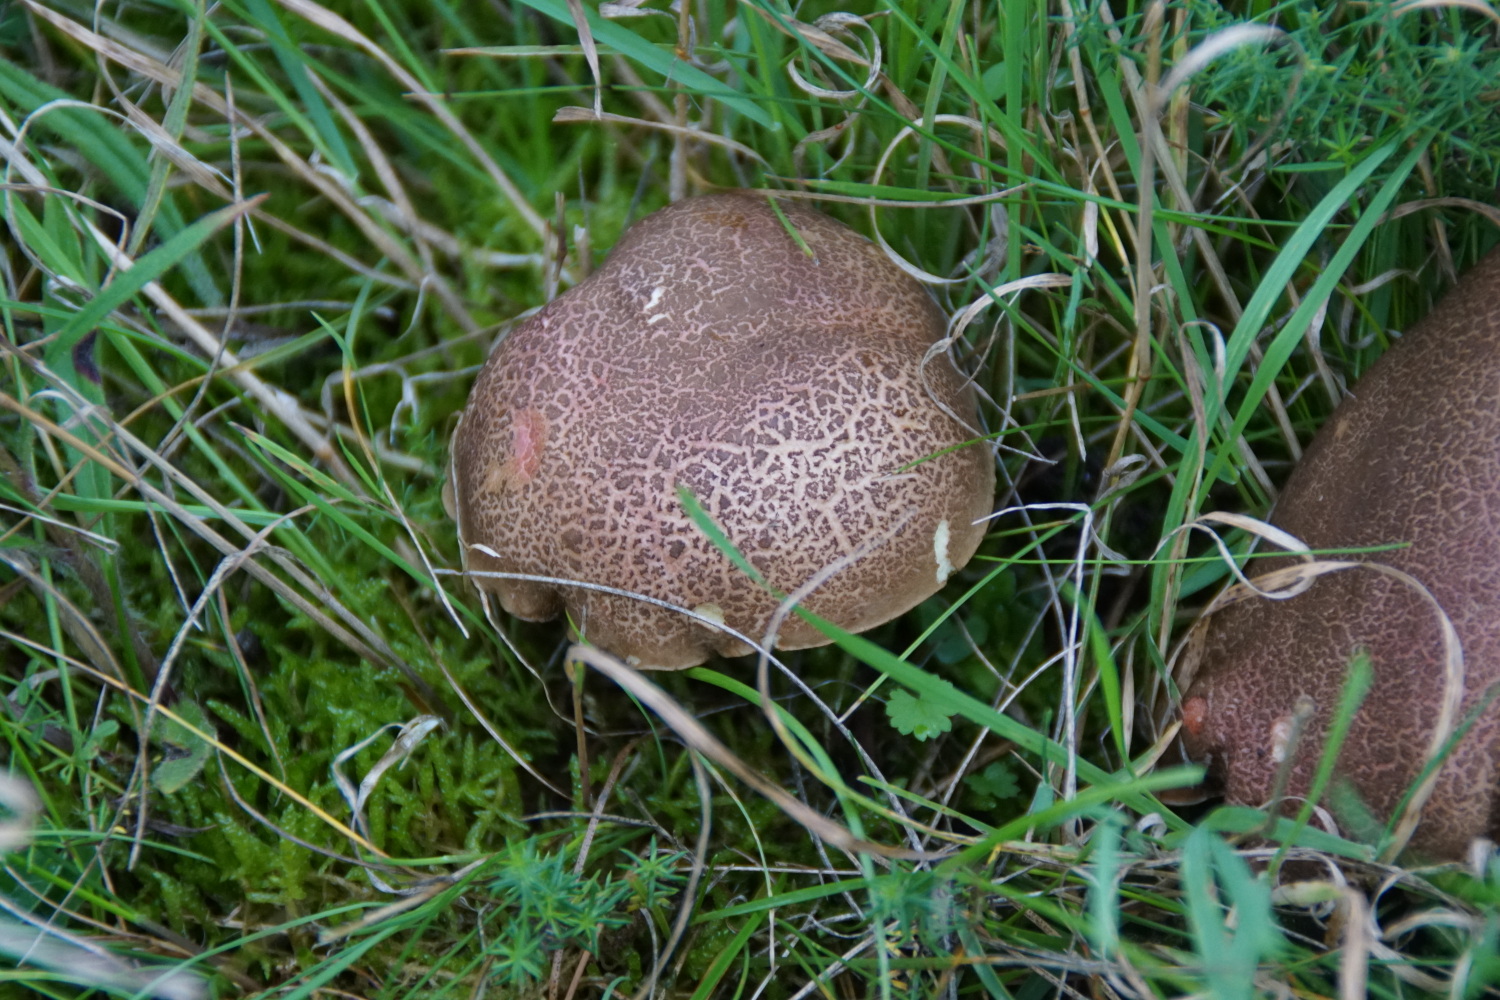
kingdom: Fungi
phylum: Basidiomycota
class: Agaricomycetes
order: Boletales
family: Boletaceae
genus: Xerocomellus
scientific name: Xerocomellus cisalpinus
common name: finsprukken rørhat
